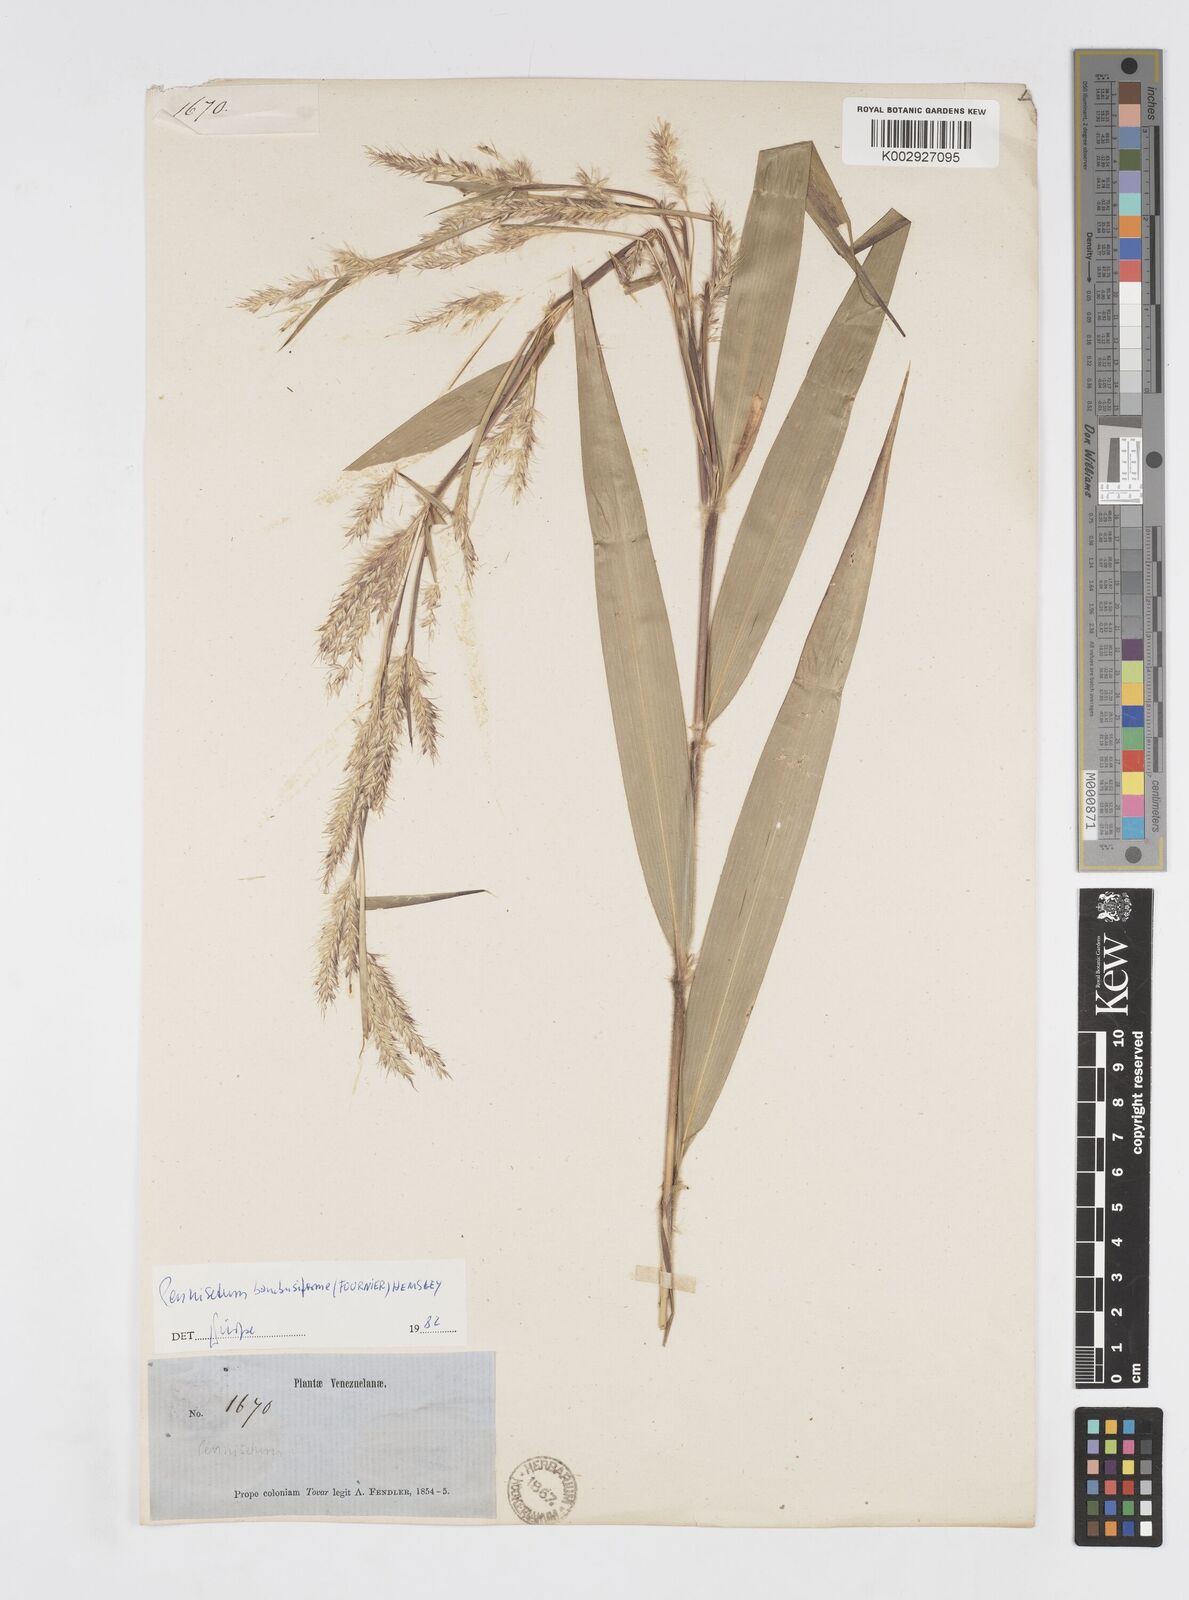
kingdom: Plantae
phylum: Tracheophyta
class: Liliopsida
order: Poales
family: Poaceae
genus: Cenchrus
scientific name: Cenchrus tristachyus
